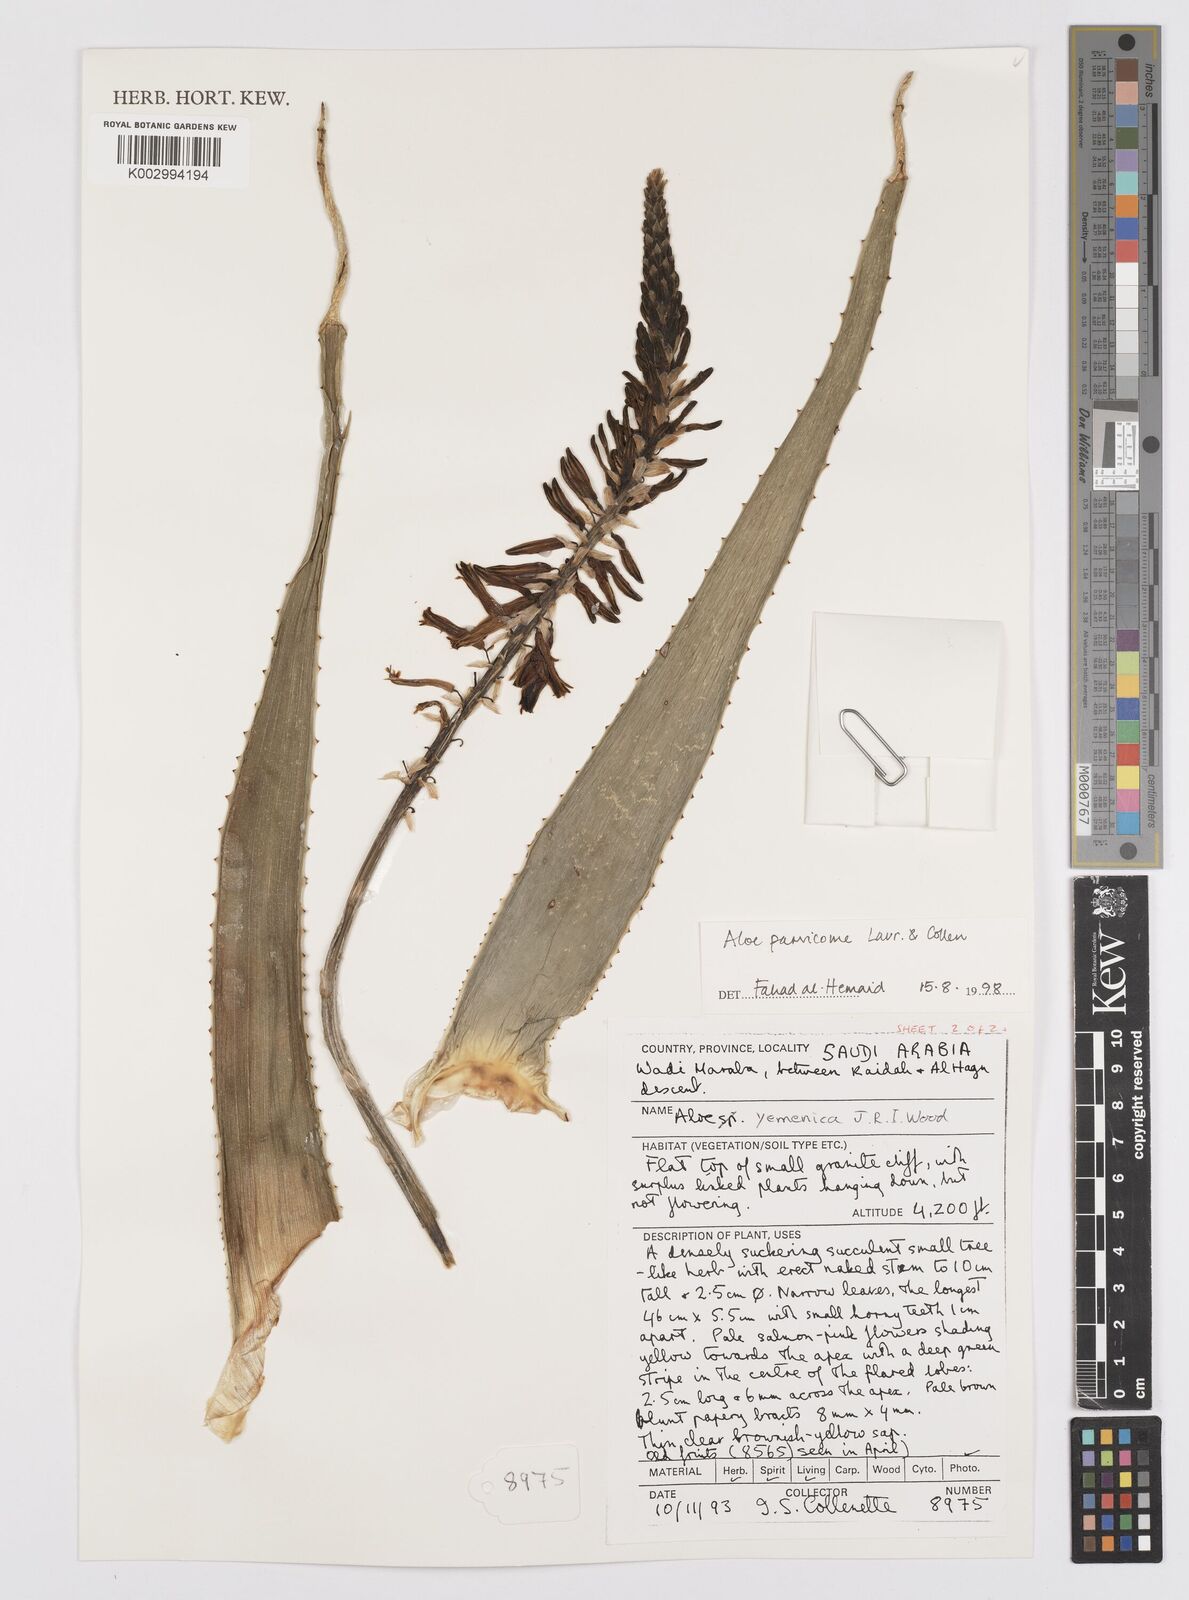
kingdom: Plantae
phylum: Tracheophyta
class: Liliopsida
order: Asparagales
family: Asphodelaceae
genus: Aloe
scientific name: Aloe rivierei
